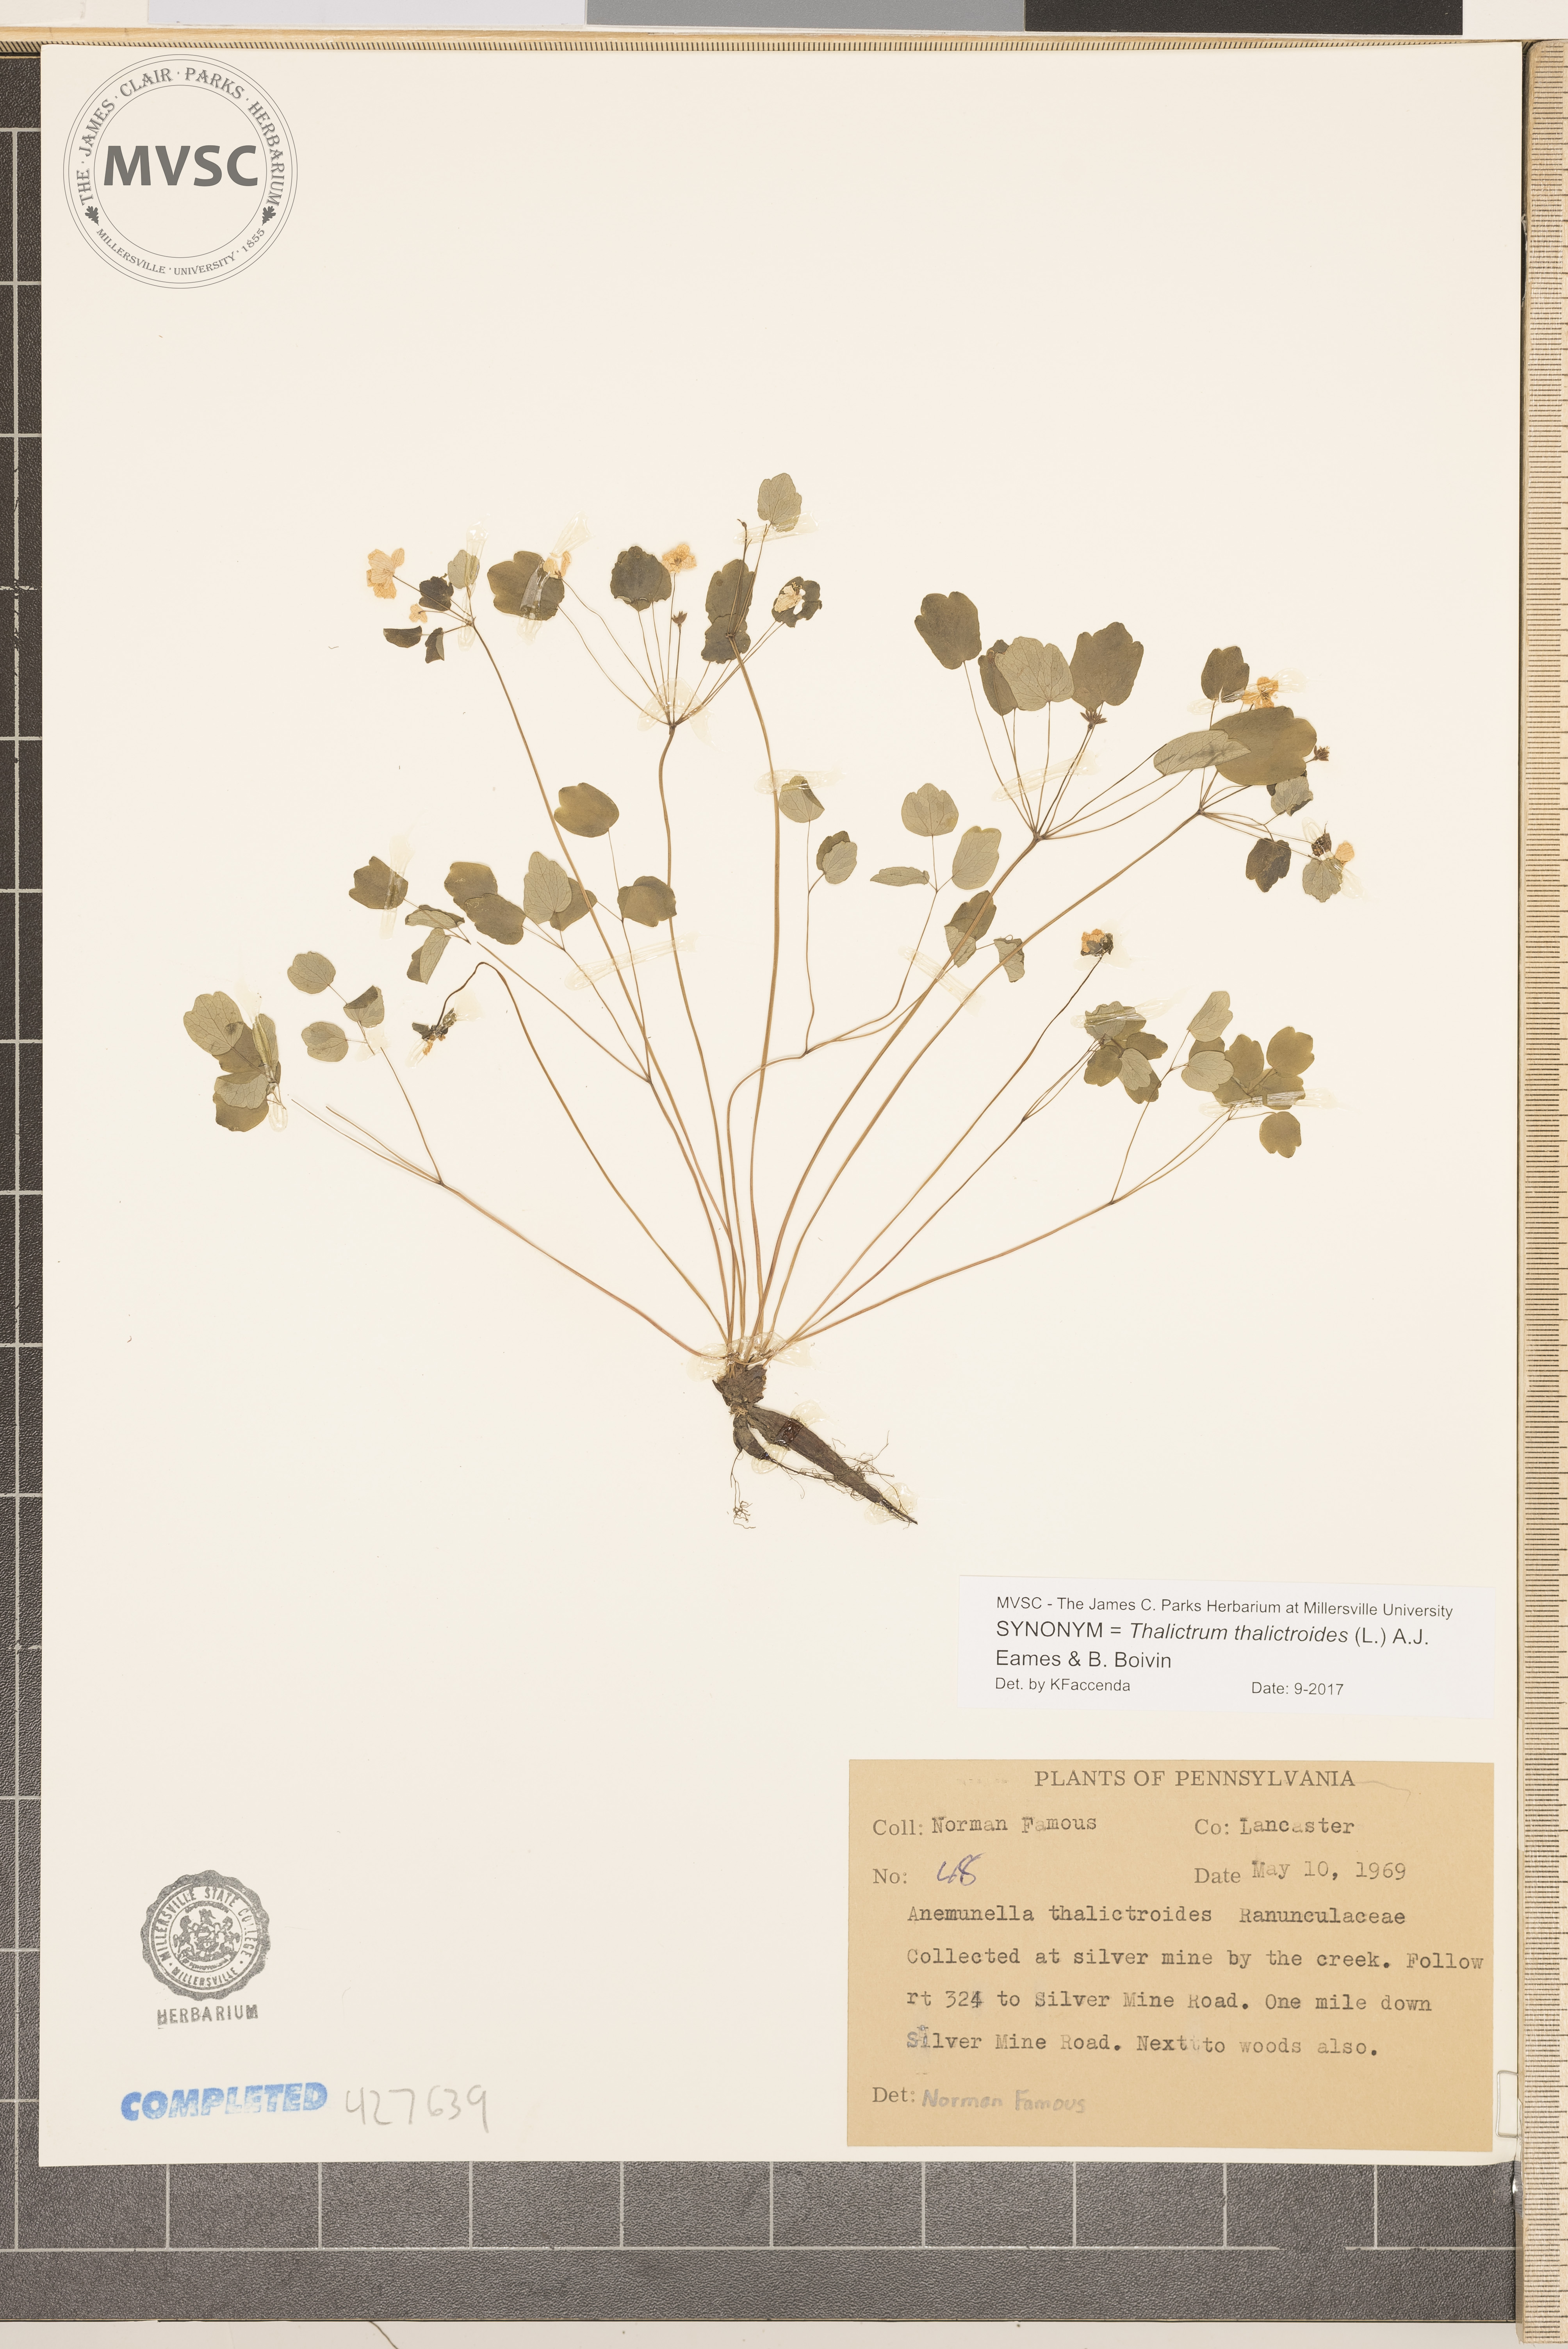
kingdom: Plantae
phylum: Tracheophyta
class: Magnoliopsida
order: Ranunculales
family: Ranunculaceae
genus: Thalictrum
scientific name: Thalictrum thalictroides
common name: Rue anemone
